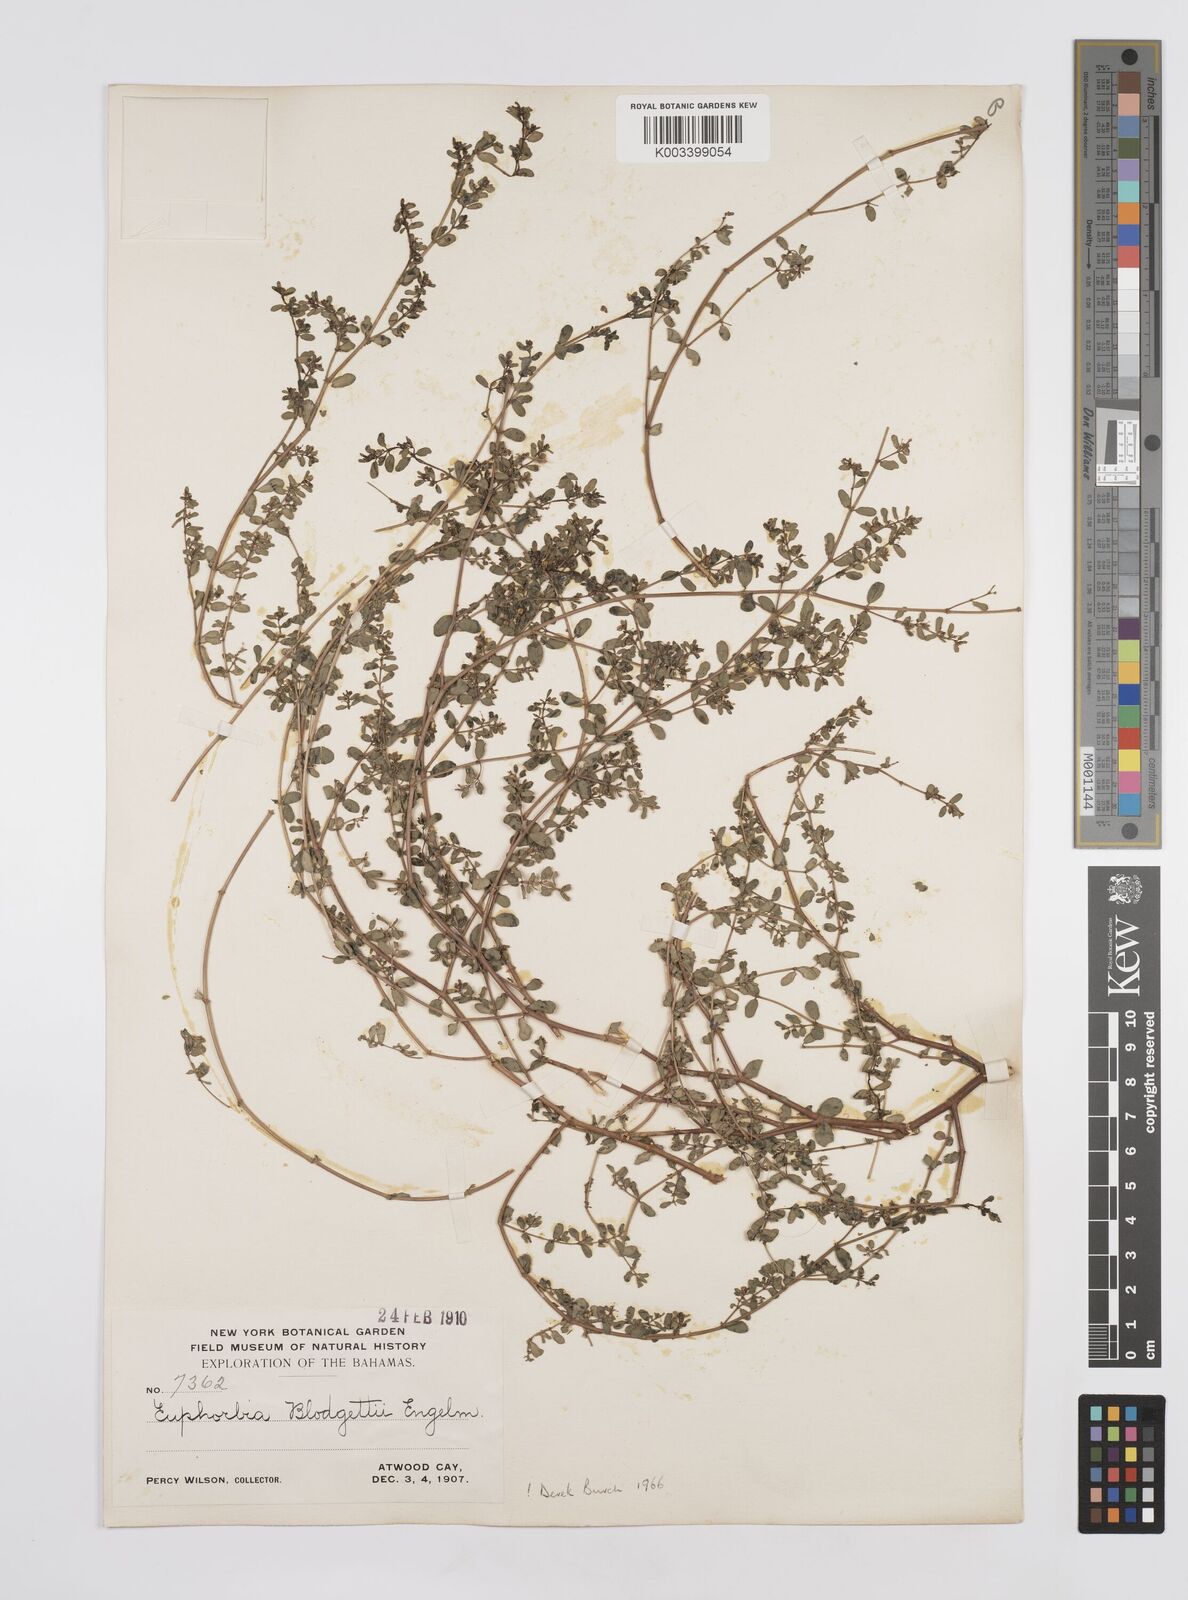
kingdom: Plantae
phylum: Tracheophyta
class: Magnoliopsida
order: Malpighiales
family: Euphorbiaceae
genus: Euphorbia
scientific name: Euphorbia blodgettii
